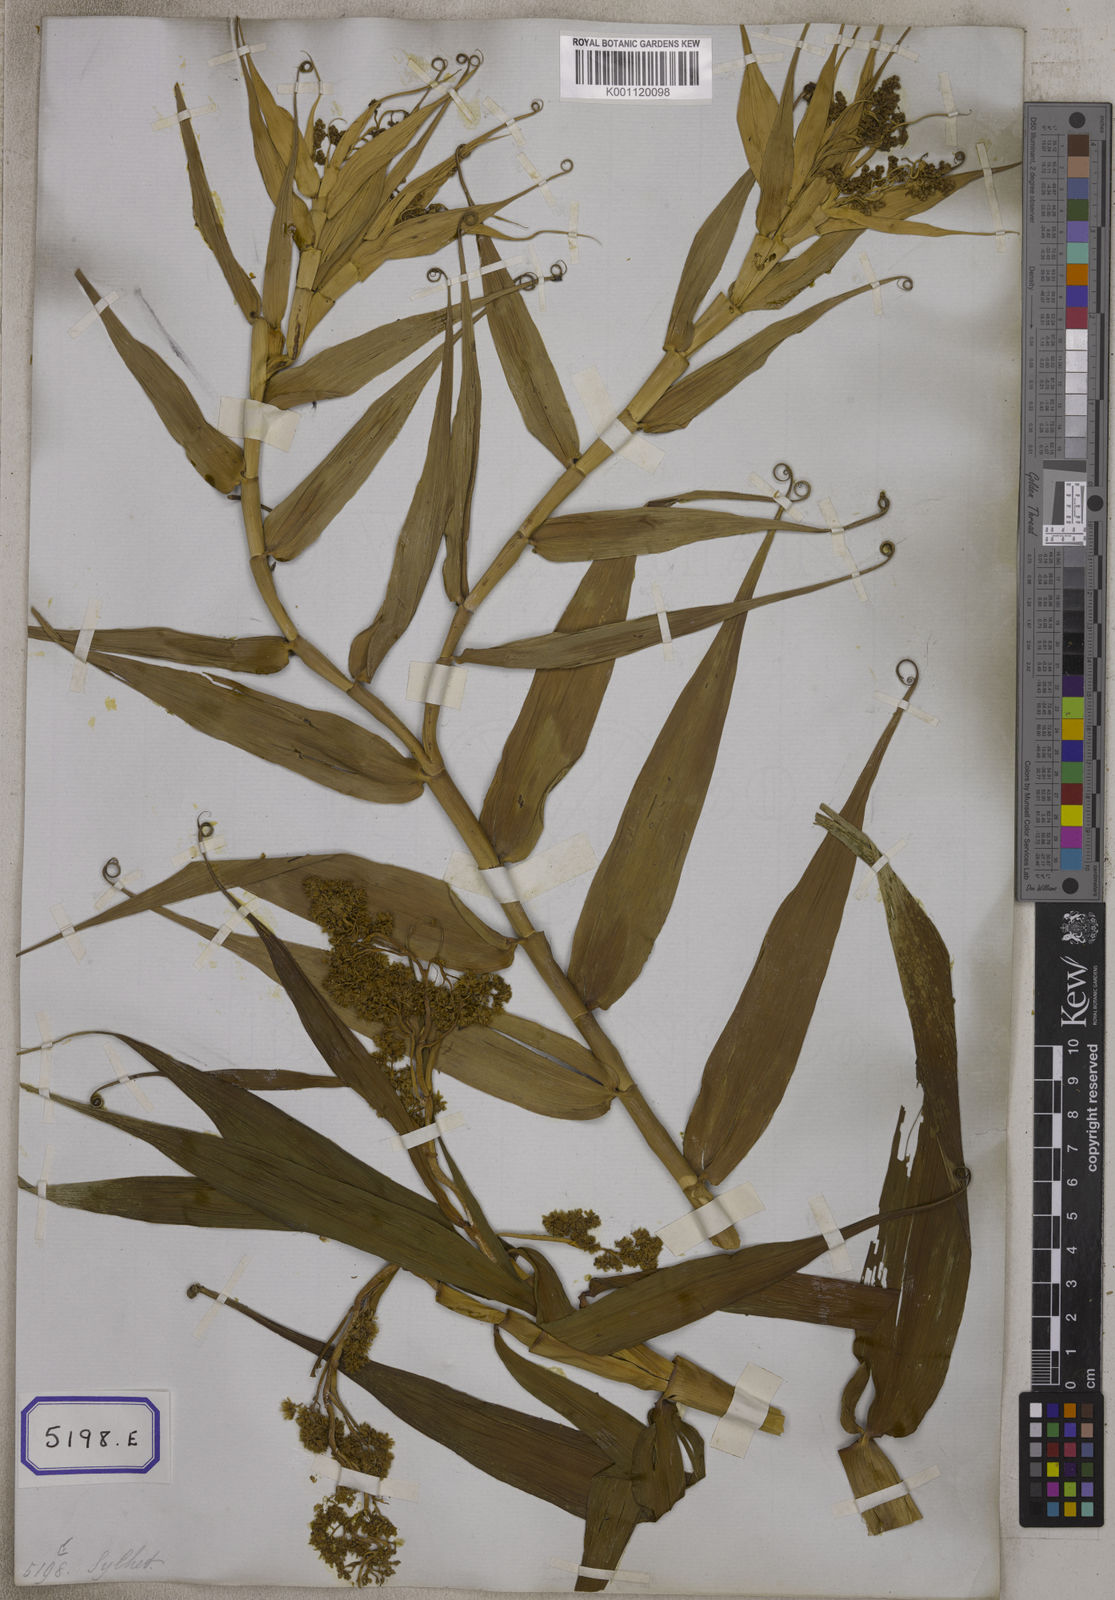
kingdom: Plantae
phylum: Tracheophyta
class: Liliopsida
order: Poales
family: Flagellariaceae
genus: Flagellaria
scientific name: Flagellaria indica
